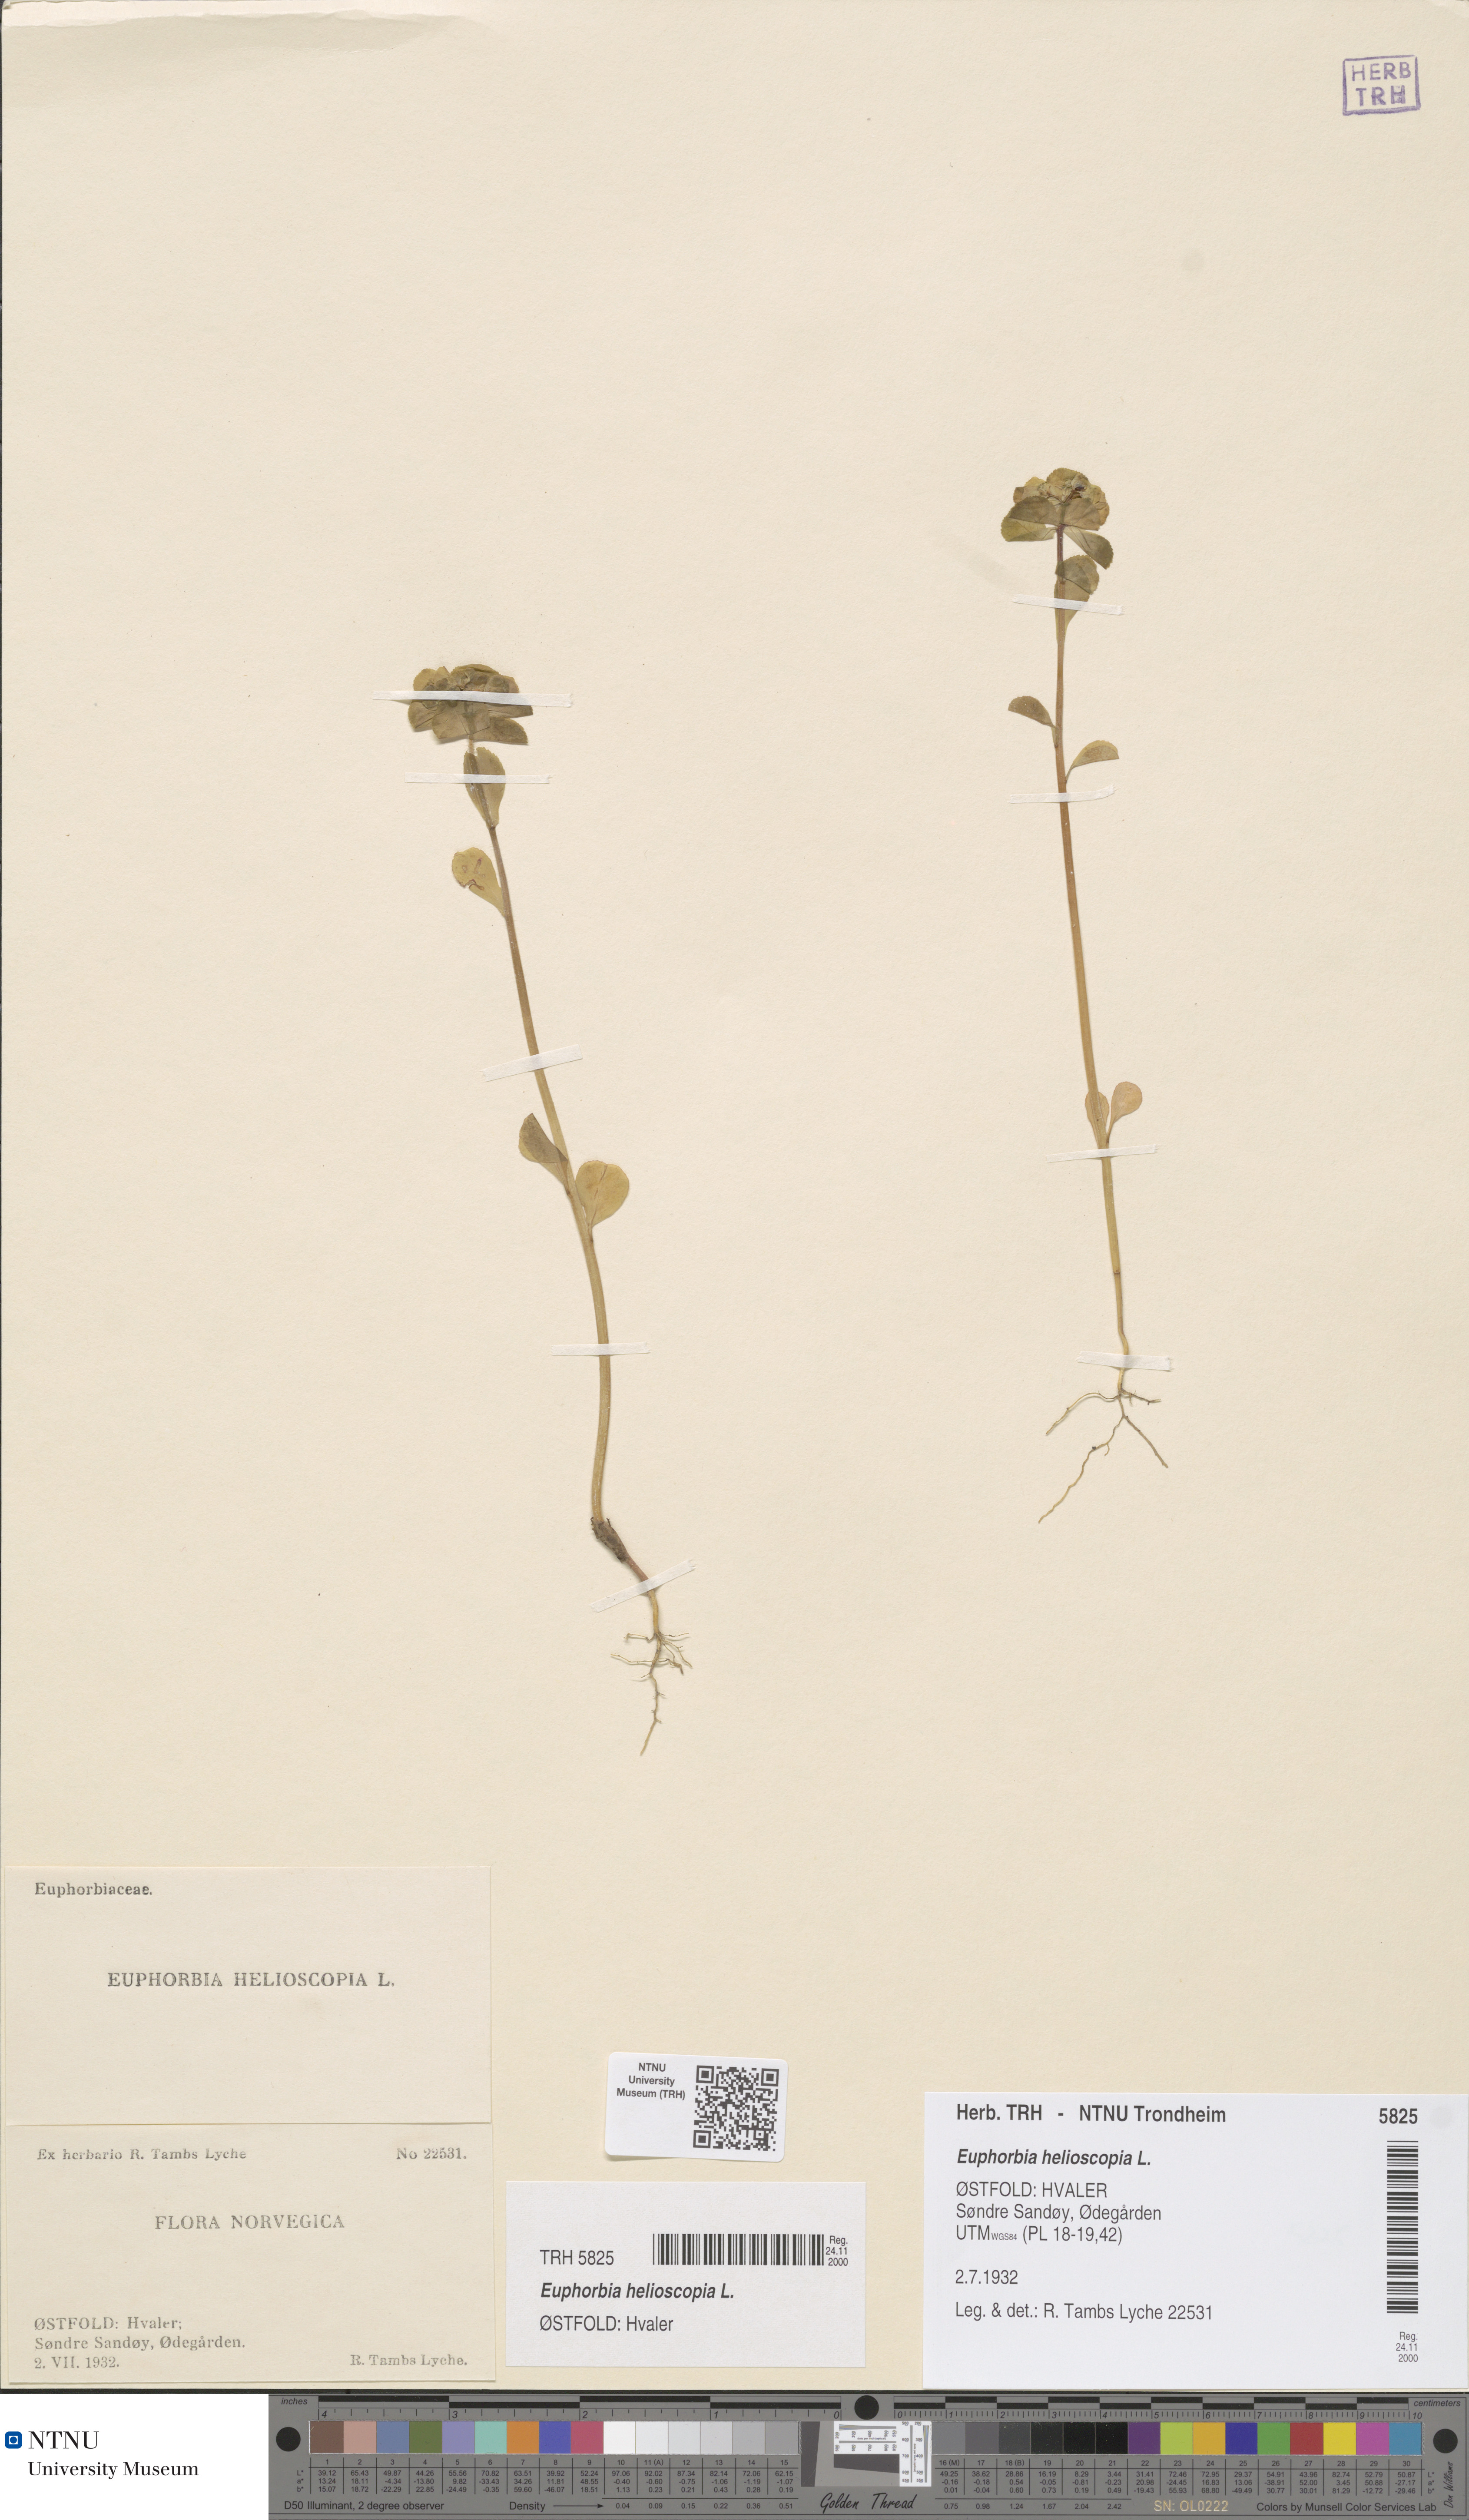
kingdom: Plantae
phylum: Tracheophyta
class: Magnoliopsida
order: Malpighiales
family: Euphorbiaceae
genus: Euphorbia
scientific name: Euphorbia helioscopia
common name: Sun spurge
